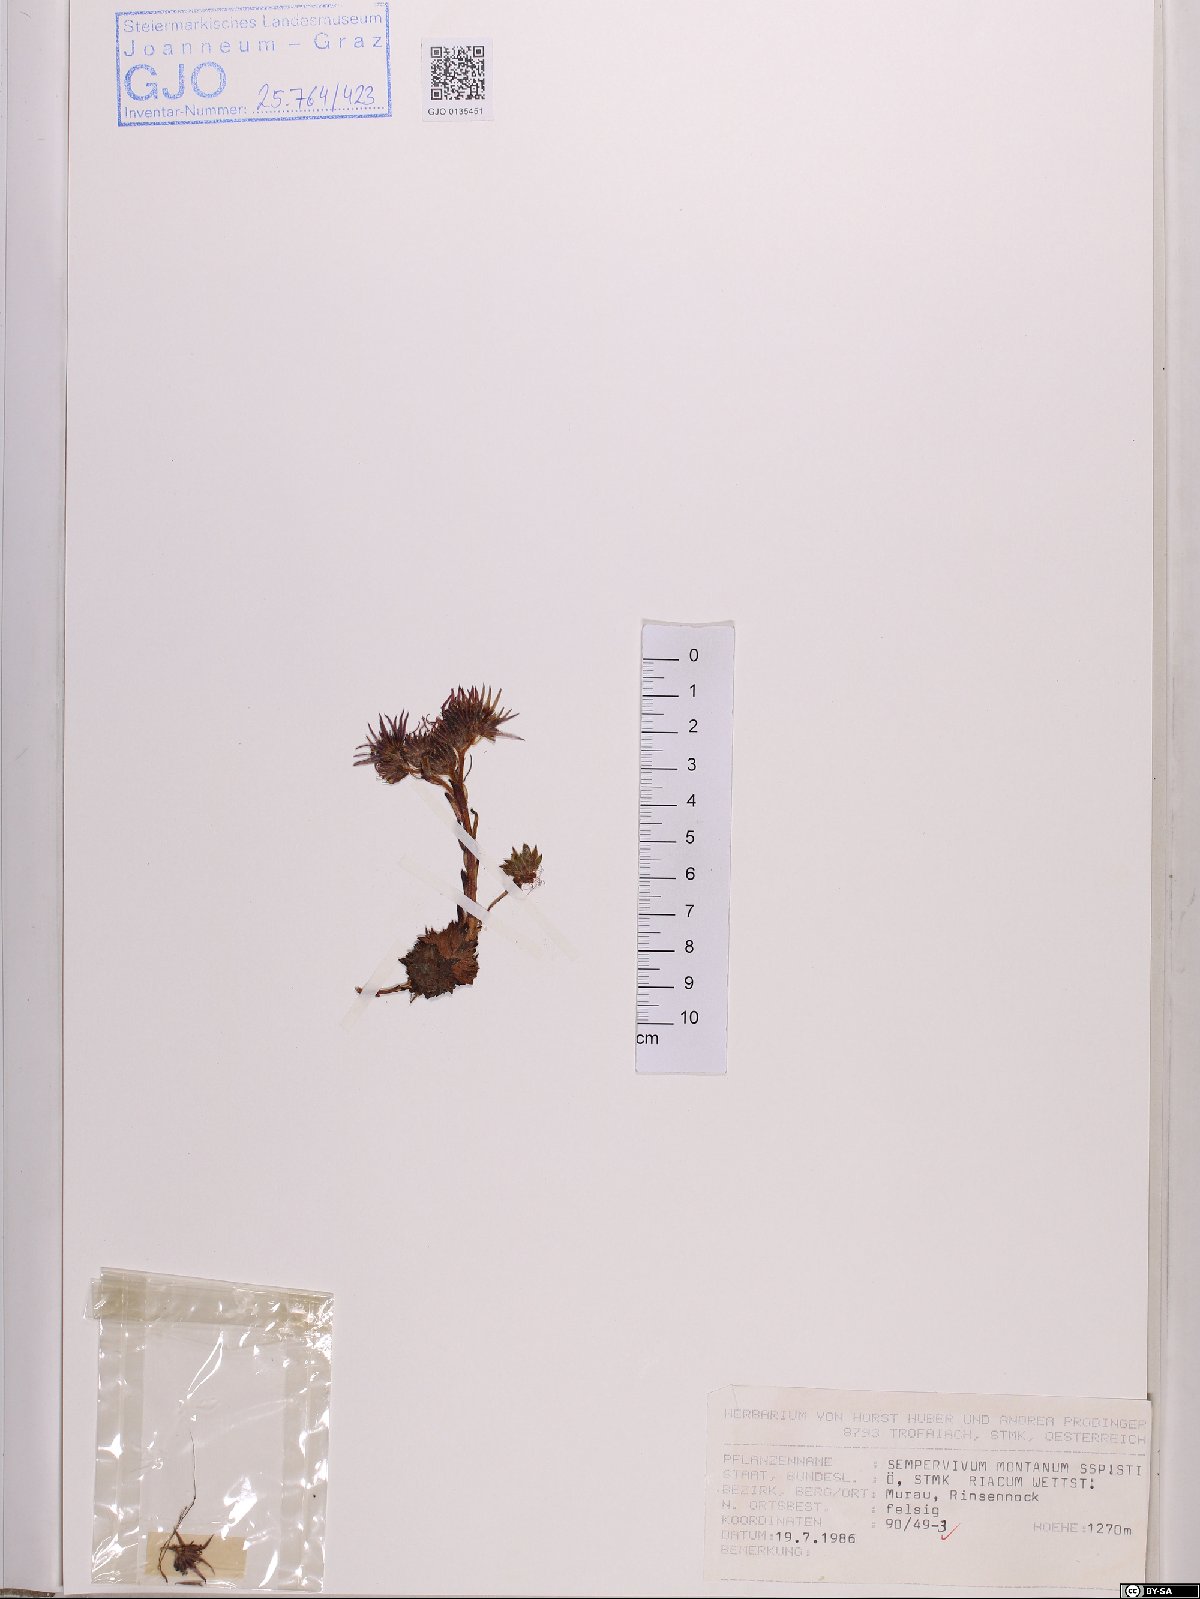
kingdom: Plantae
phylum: Tracheophyta
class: Magnoliopsida
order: Saxifragales
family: Crassulaceae
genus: Sempervivum
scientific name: Sempervivum montanum
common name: Mountain house-leek
